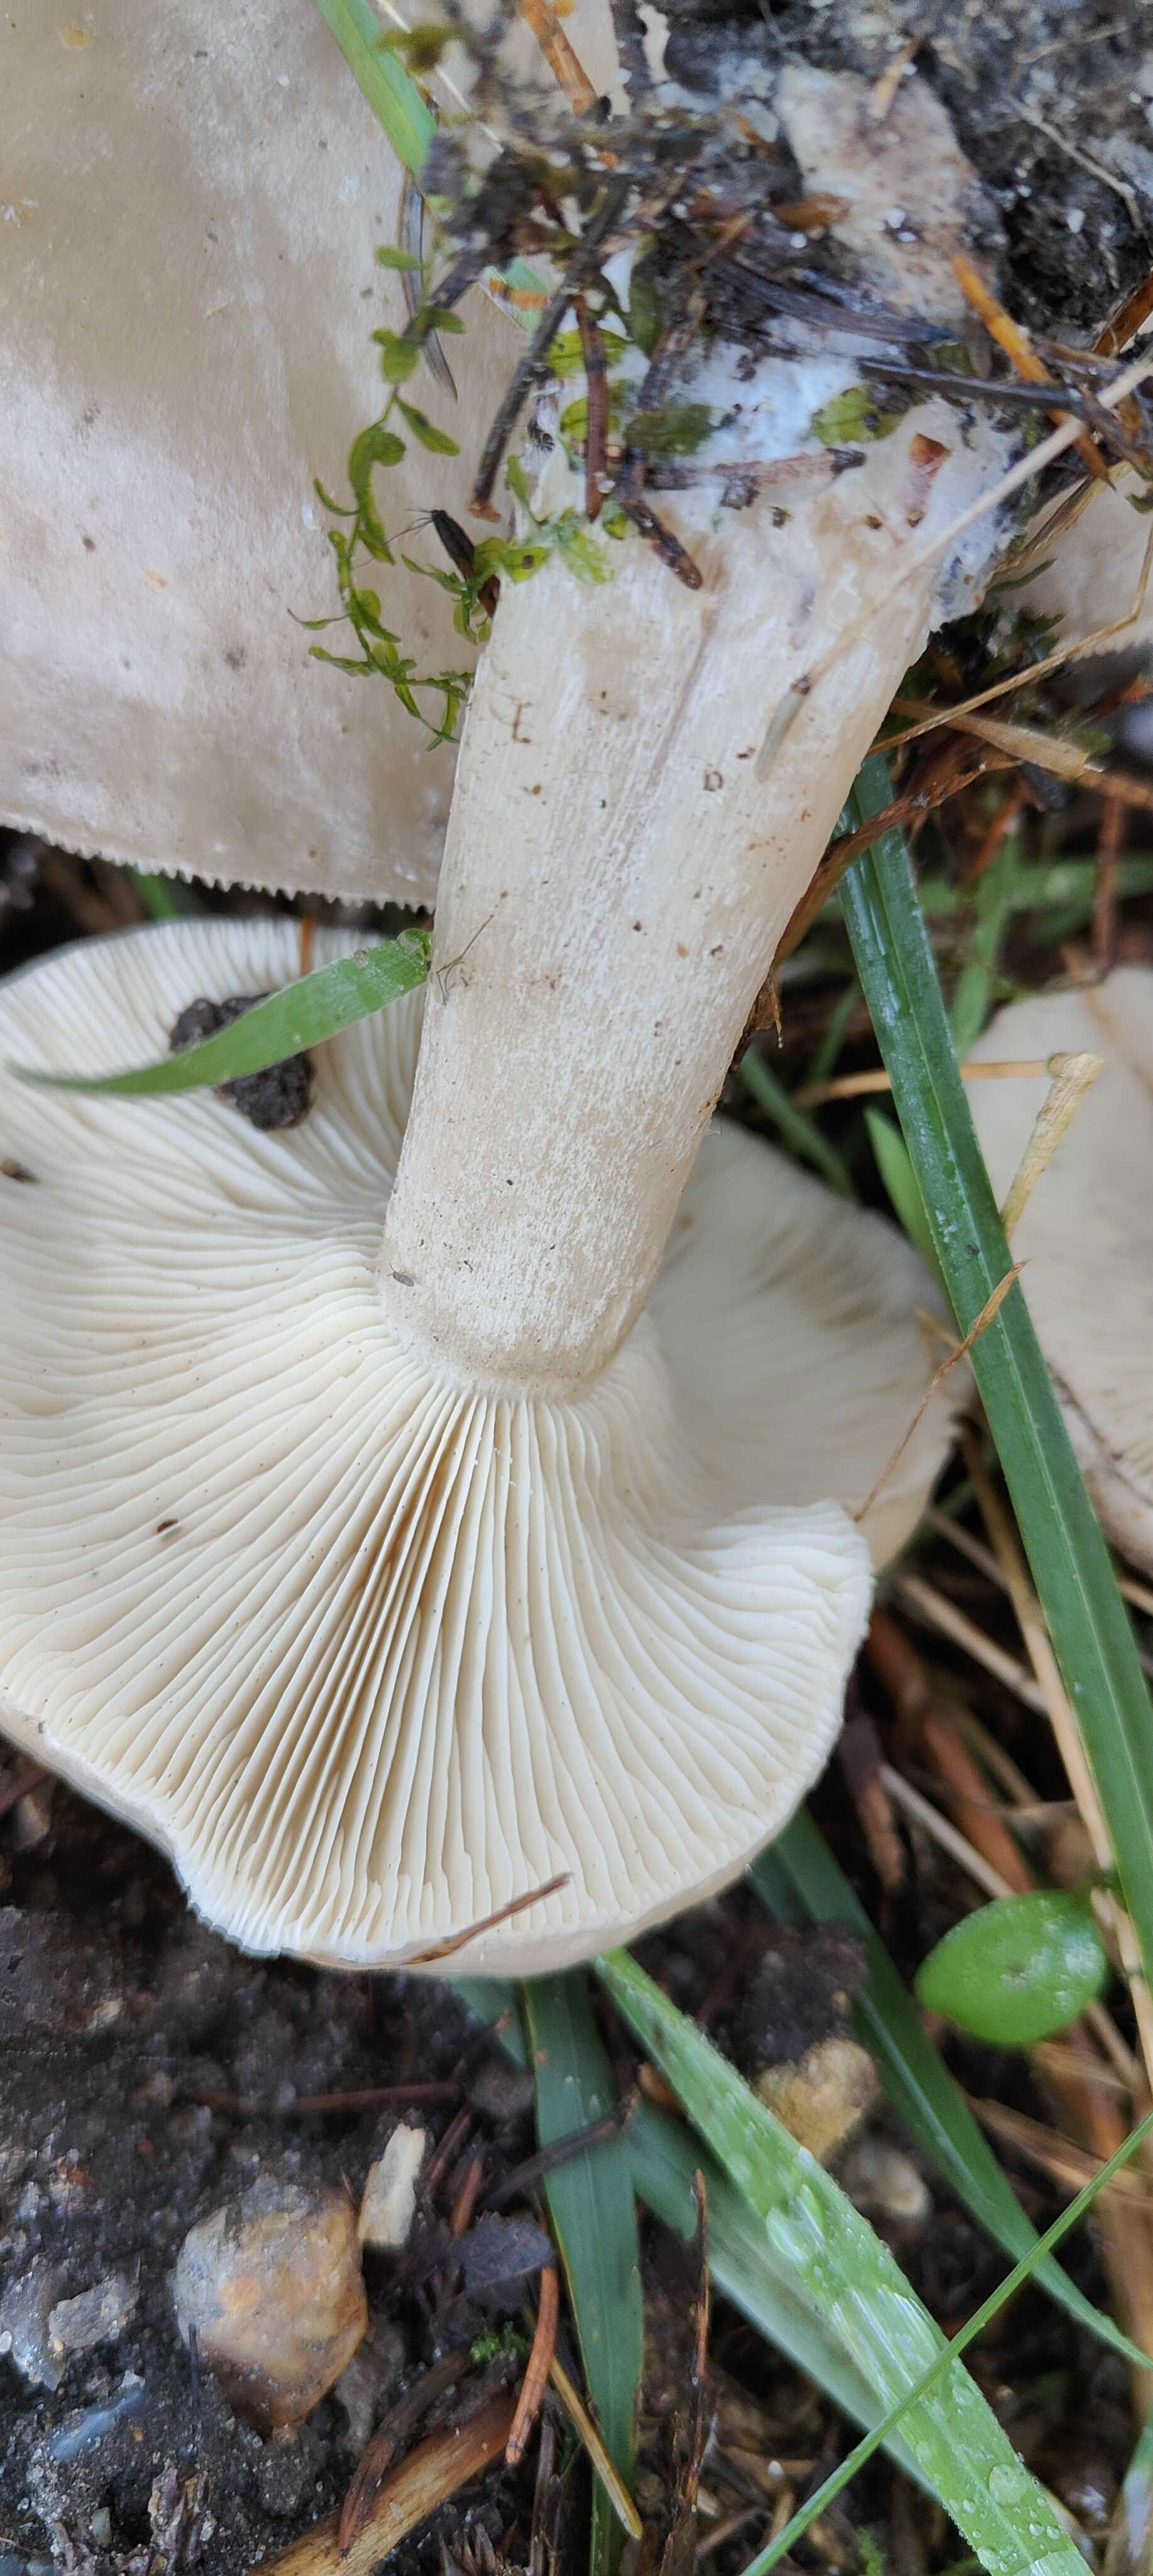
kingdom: Fungi
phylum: Basidiomycota
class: Agaricomycetes
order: Agaricales
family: Tricholomataceae
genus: Clitocybe
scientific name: Clitocybe nebularis
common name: tåge-tragthat
